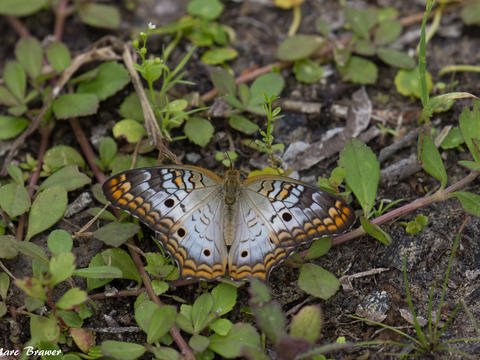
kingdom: Animalia
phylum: Arthropoda
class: Insecta
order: Lepidoptera
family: Nymphalidae
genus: Anartia
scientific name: Anartia jatrophae
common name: White Peacock
